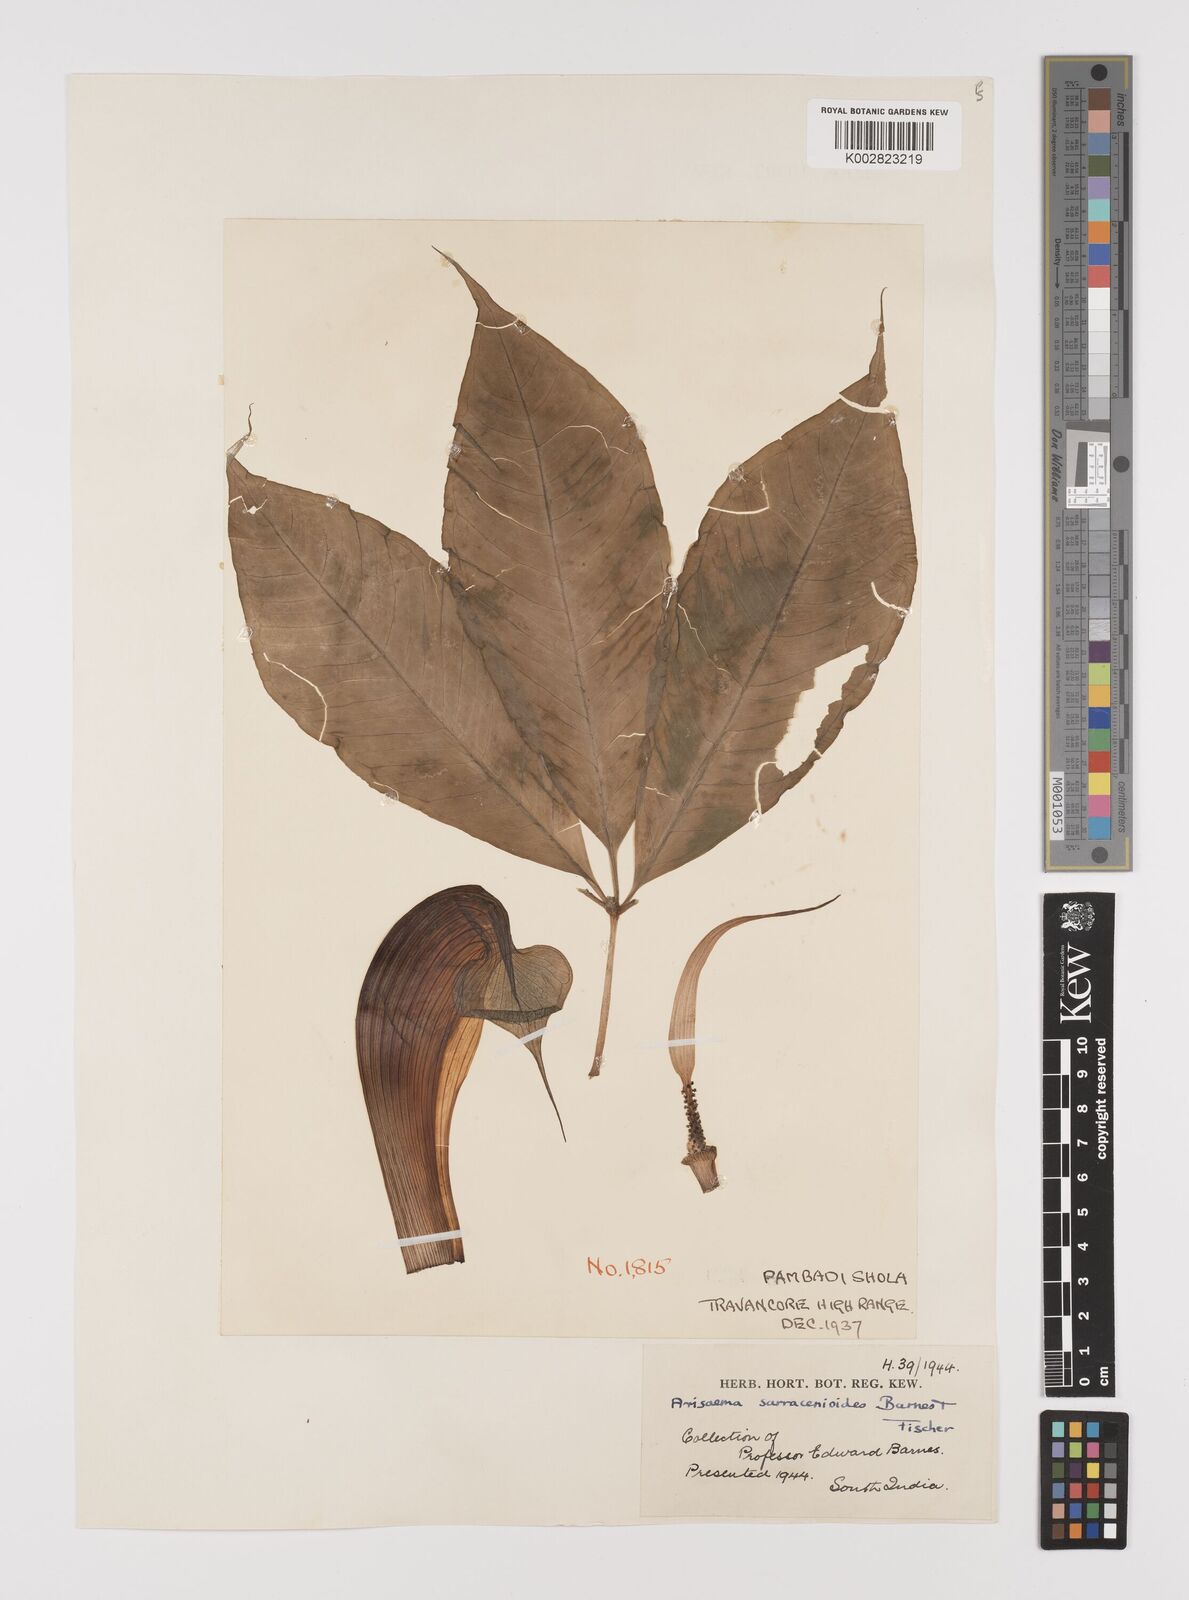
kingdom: Plantae
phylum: Tracheophyta
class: Liliopsida
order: Alismatales
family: Araceae
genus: Arisaema
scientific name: Arisaema sarracenioides
